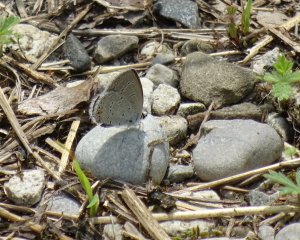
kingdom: Animalia
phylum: Arthropoda
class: Insecta
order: Lepidoptera
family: Lycaenidae
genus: Elkalyce
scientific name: Elkalyce comyntas
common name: Eastern Tailed-Blue
